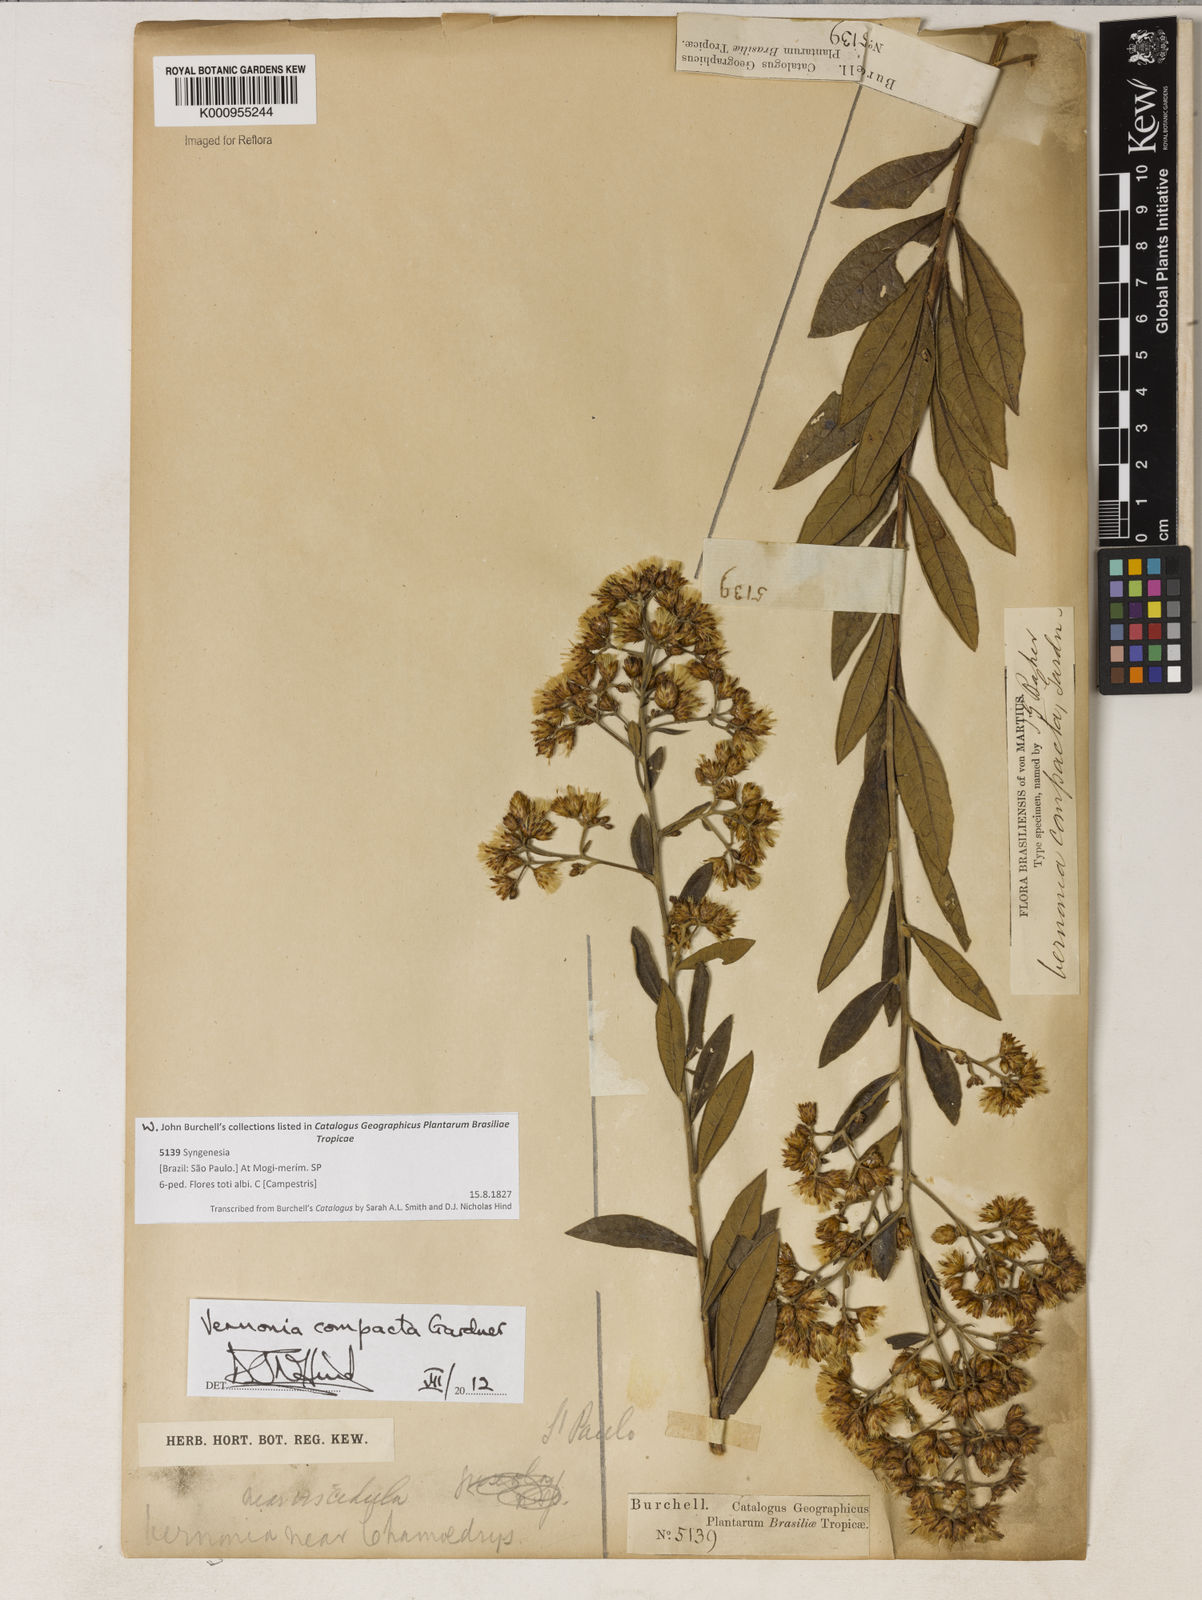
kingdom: Plantae
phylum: Tracheophyta
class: Magnoliopsida
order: Asterales
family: Asteraceae
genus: Vernonanthura
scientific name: Vernonanthura ferruginea
